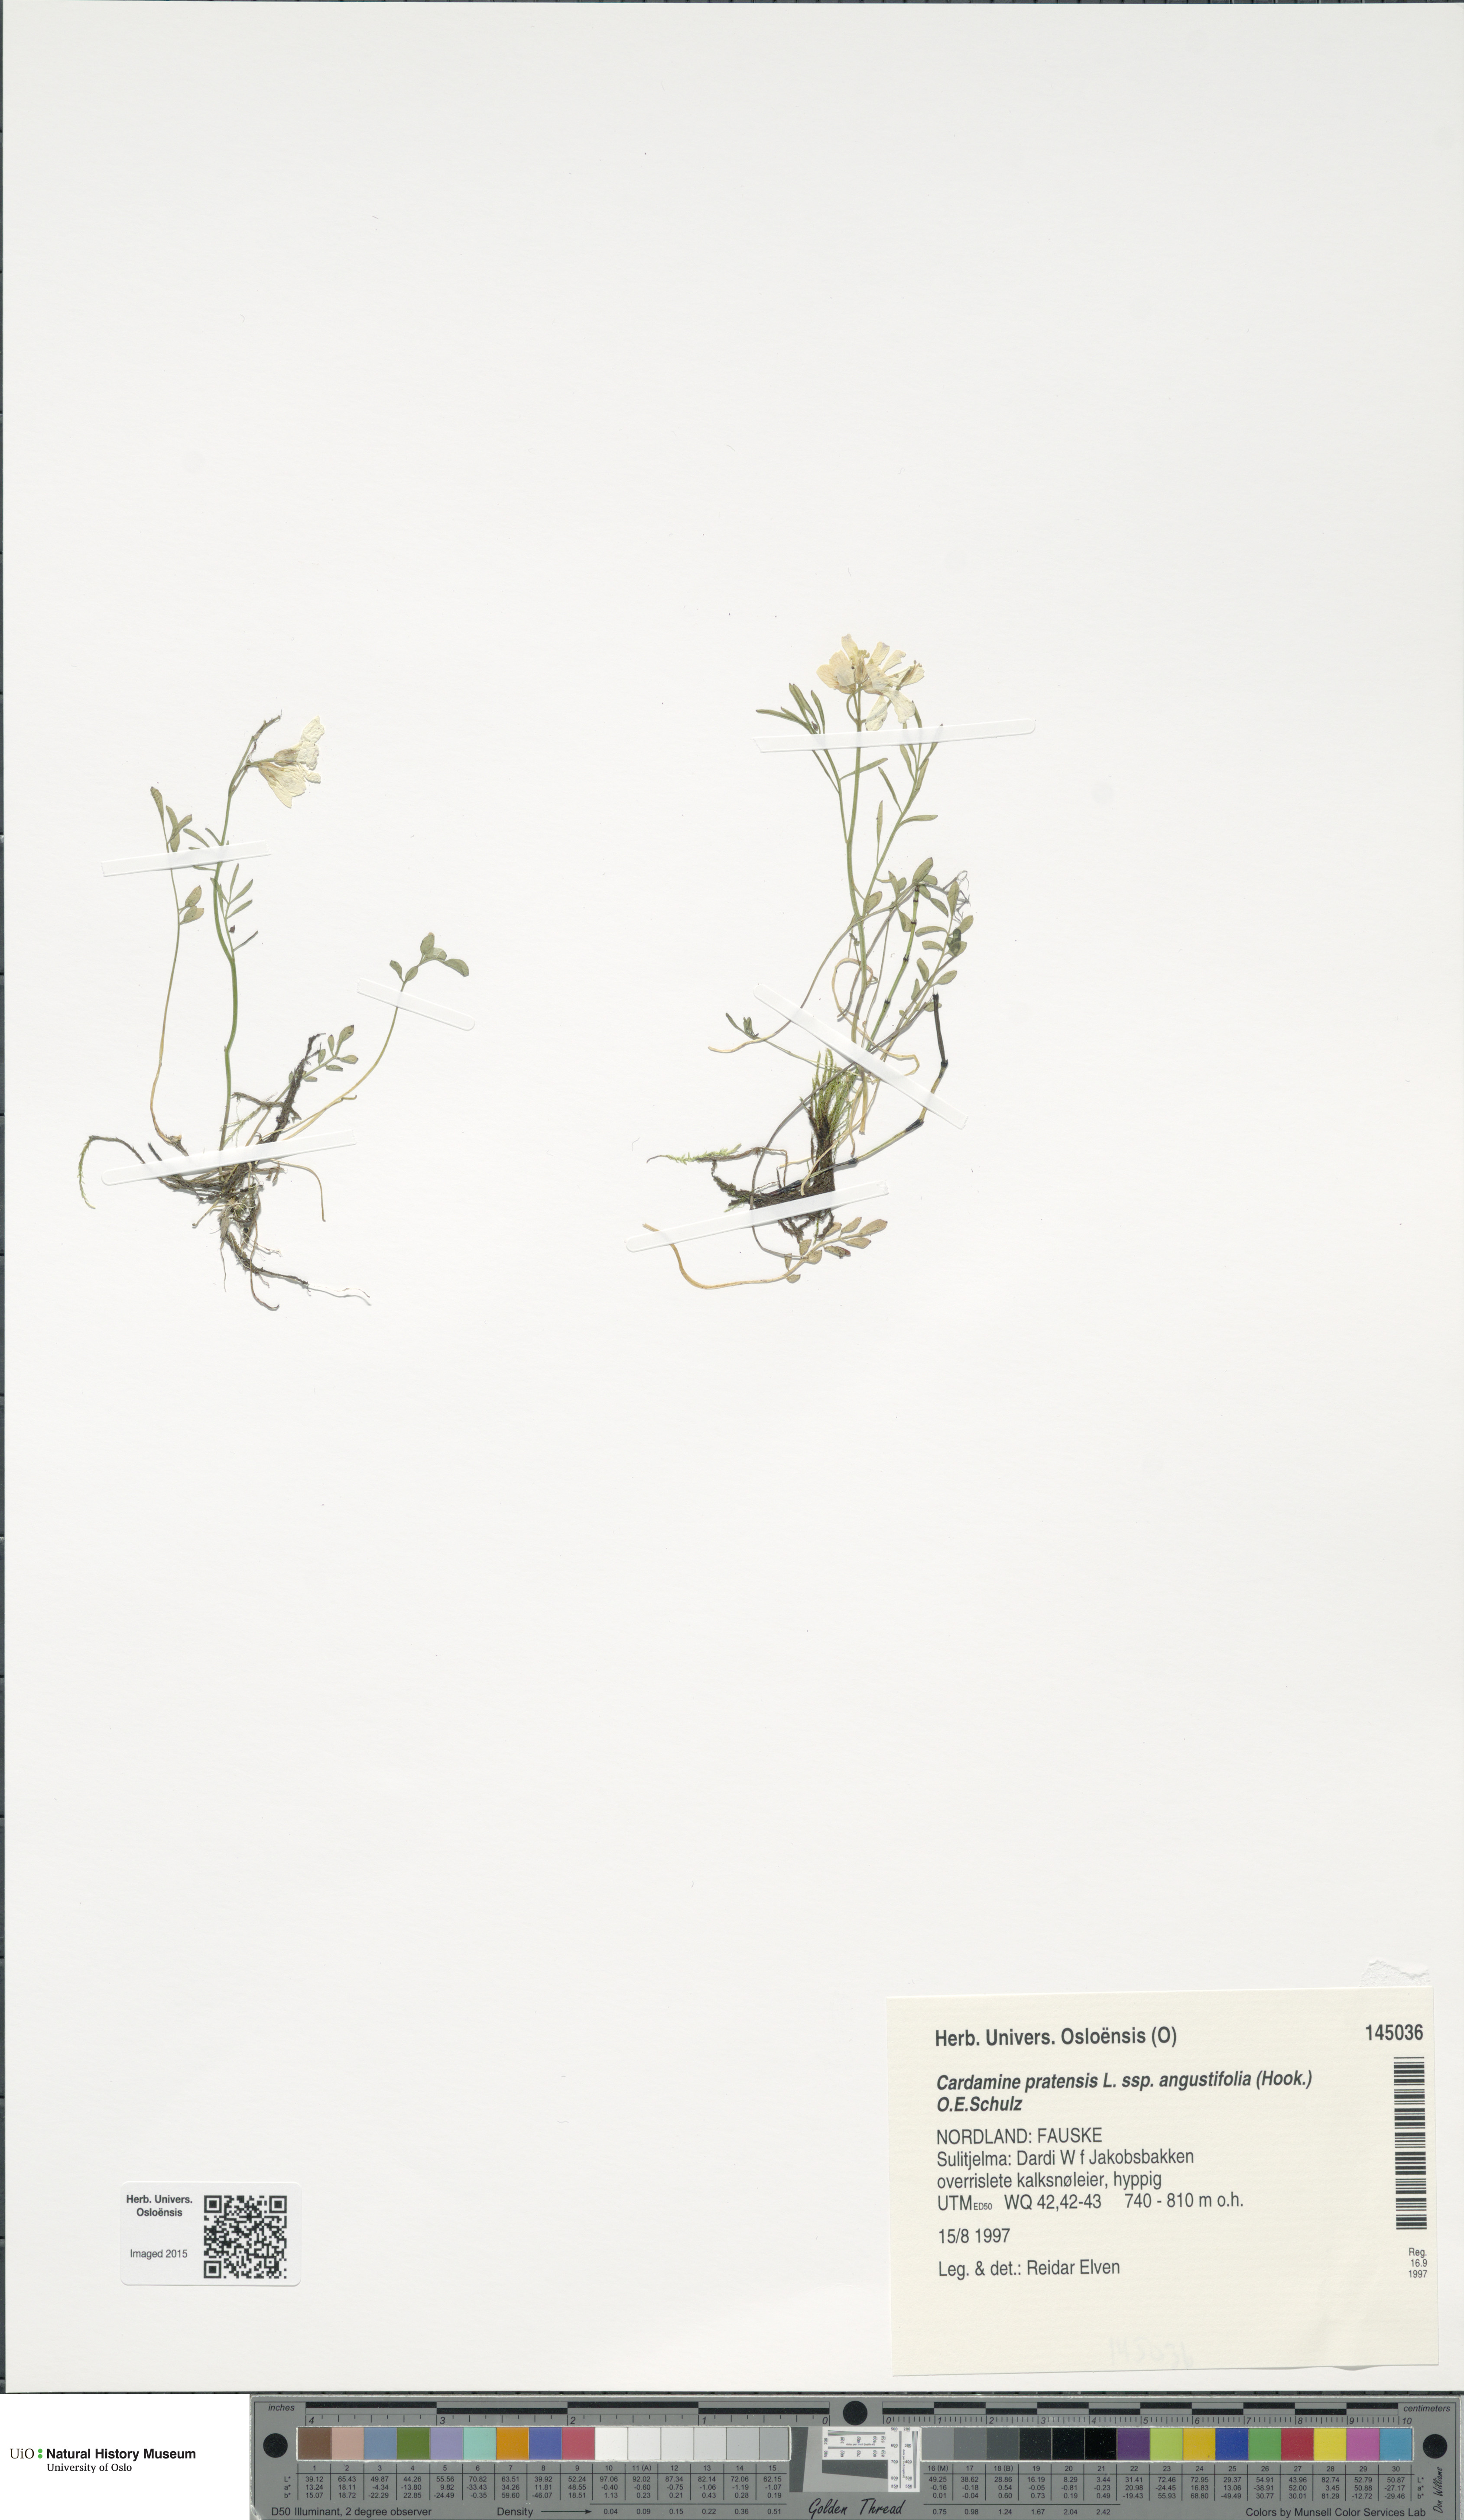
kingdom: Plantae
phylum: Tracheophyta
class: Magnoliopsida
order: Brassicales
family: Brassicaceae
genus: Cardamine
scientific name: Cardamine nymanii
